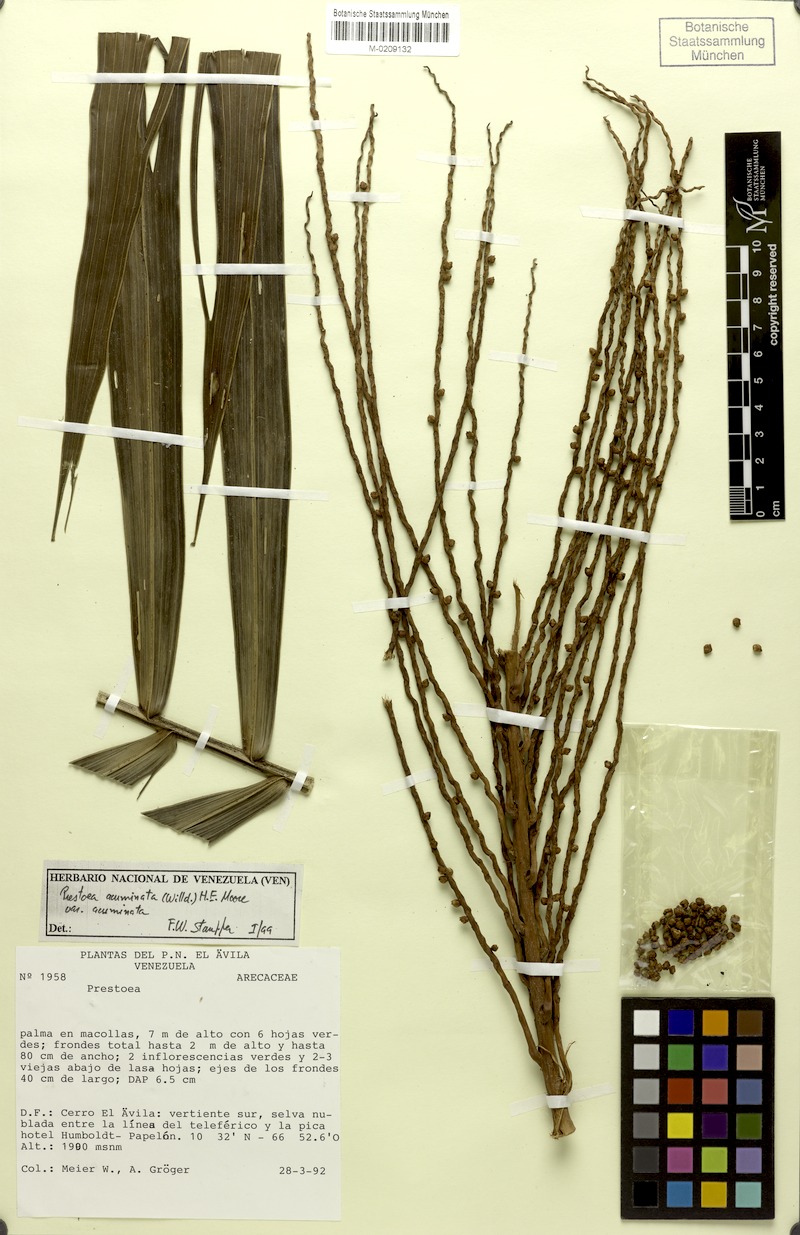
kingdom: Plantae
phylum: Tracheophyta
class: Liliopsida
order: Arecales
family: Arecaceae
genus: Prestoea
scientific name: Prestoea acuminata
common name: Sierran palm
